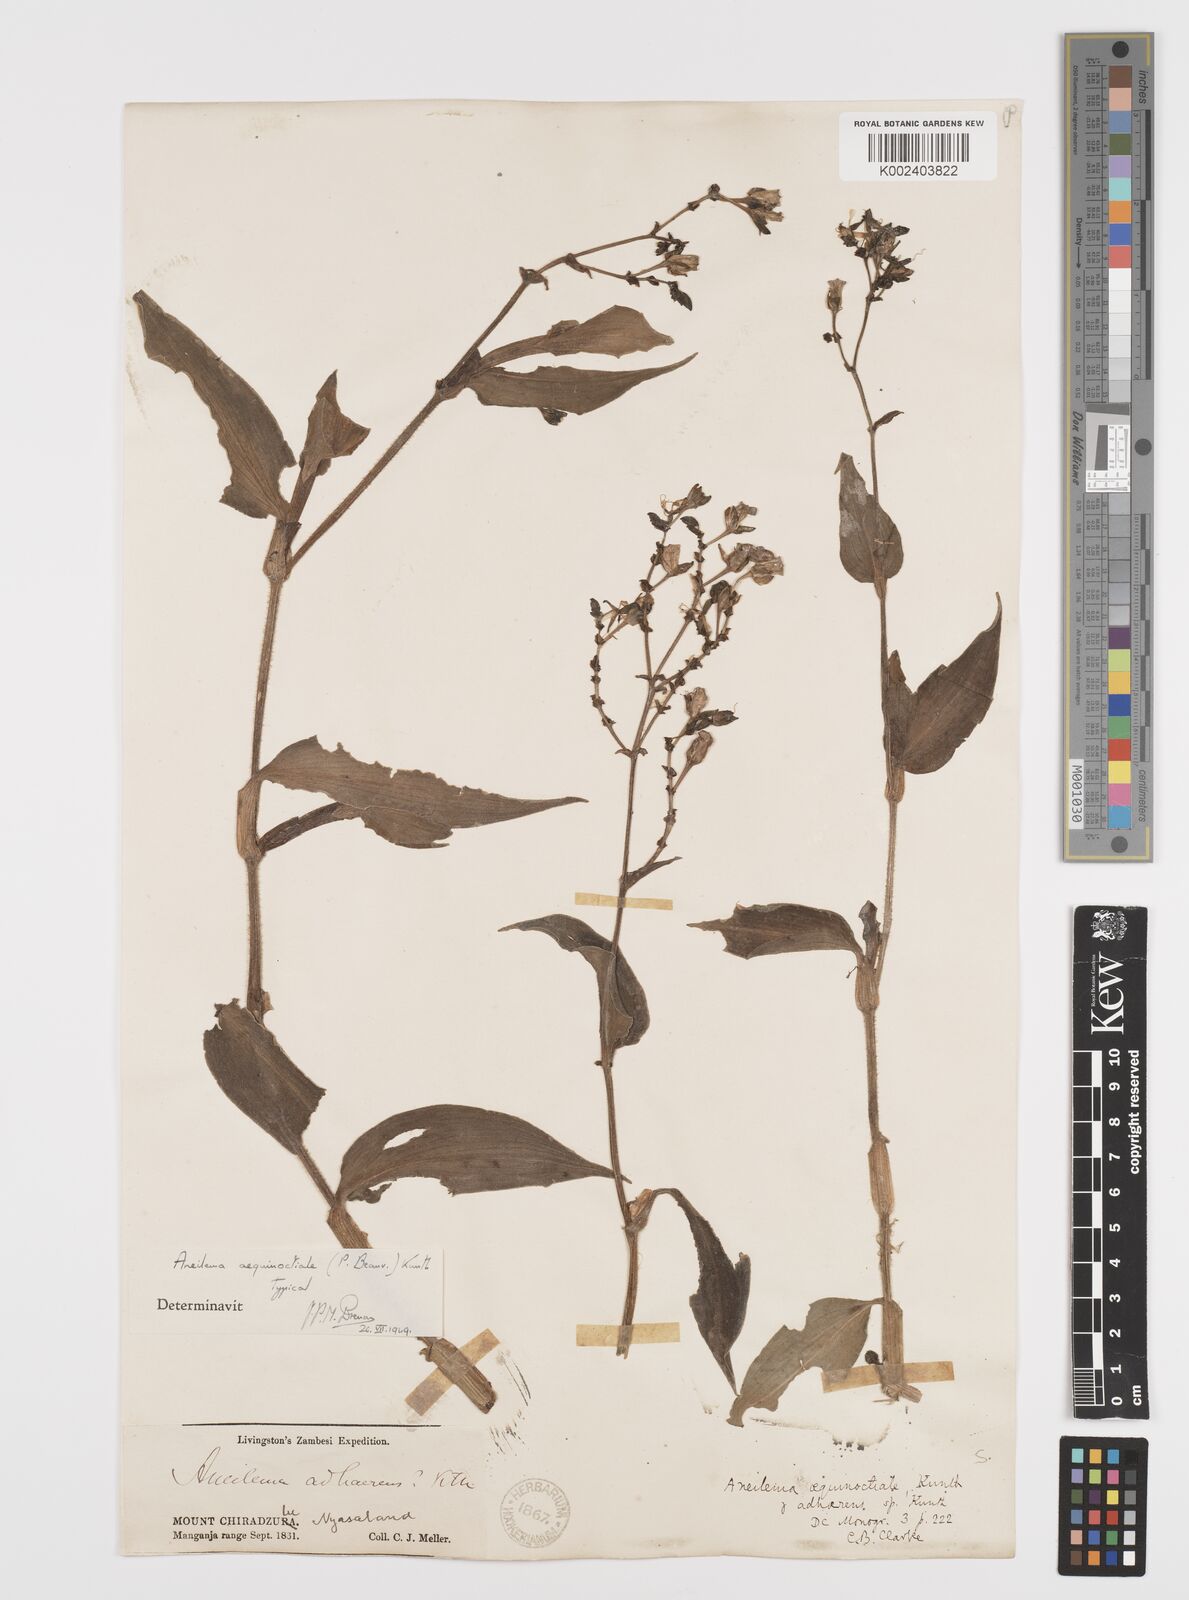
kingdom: Plantae
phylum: Tracheophyta
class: Liliopsida
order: Commelinales
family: Commelinaceae
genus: Aneilema
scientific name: Aneilema aequinoctiale
